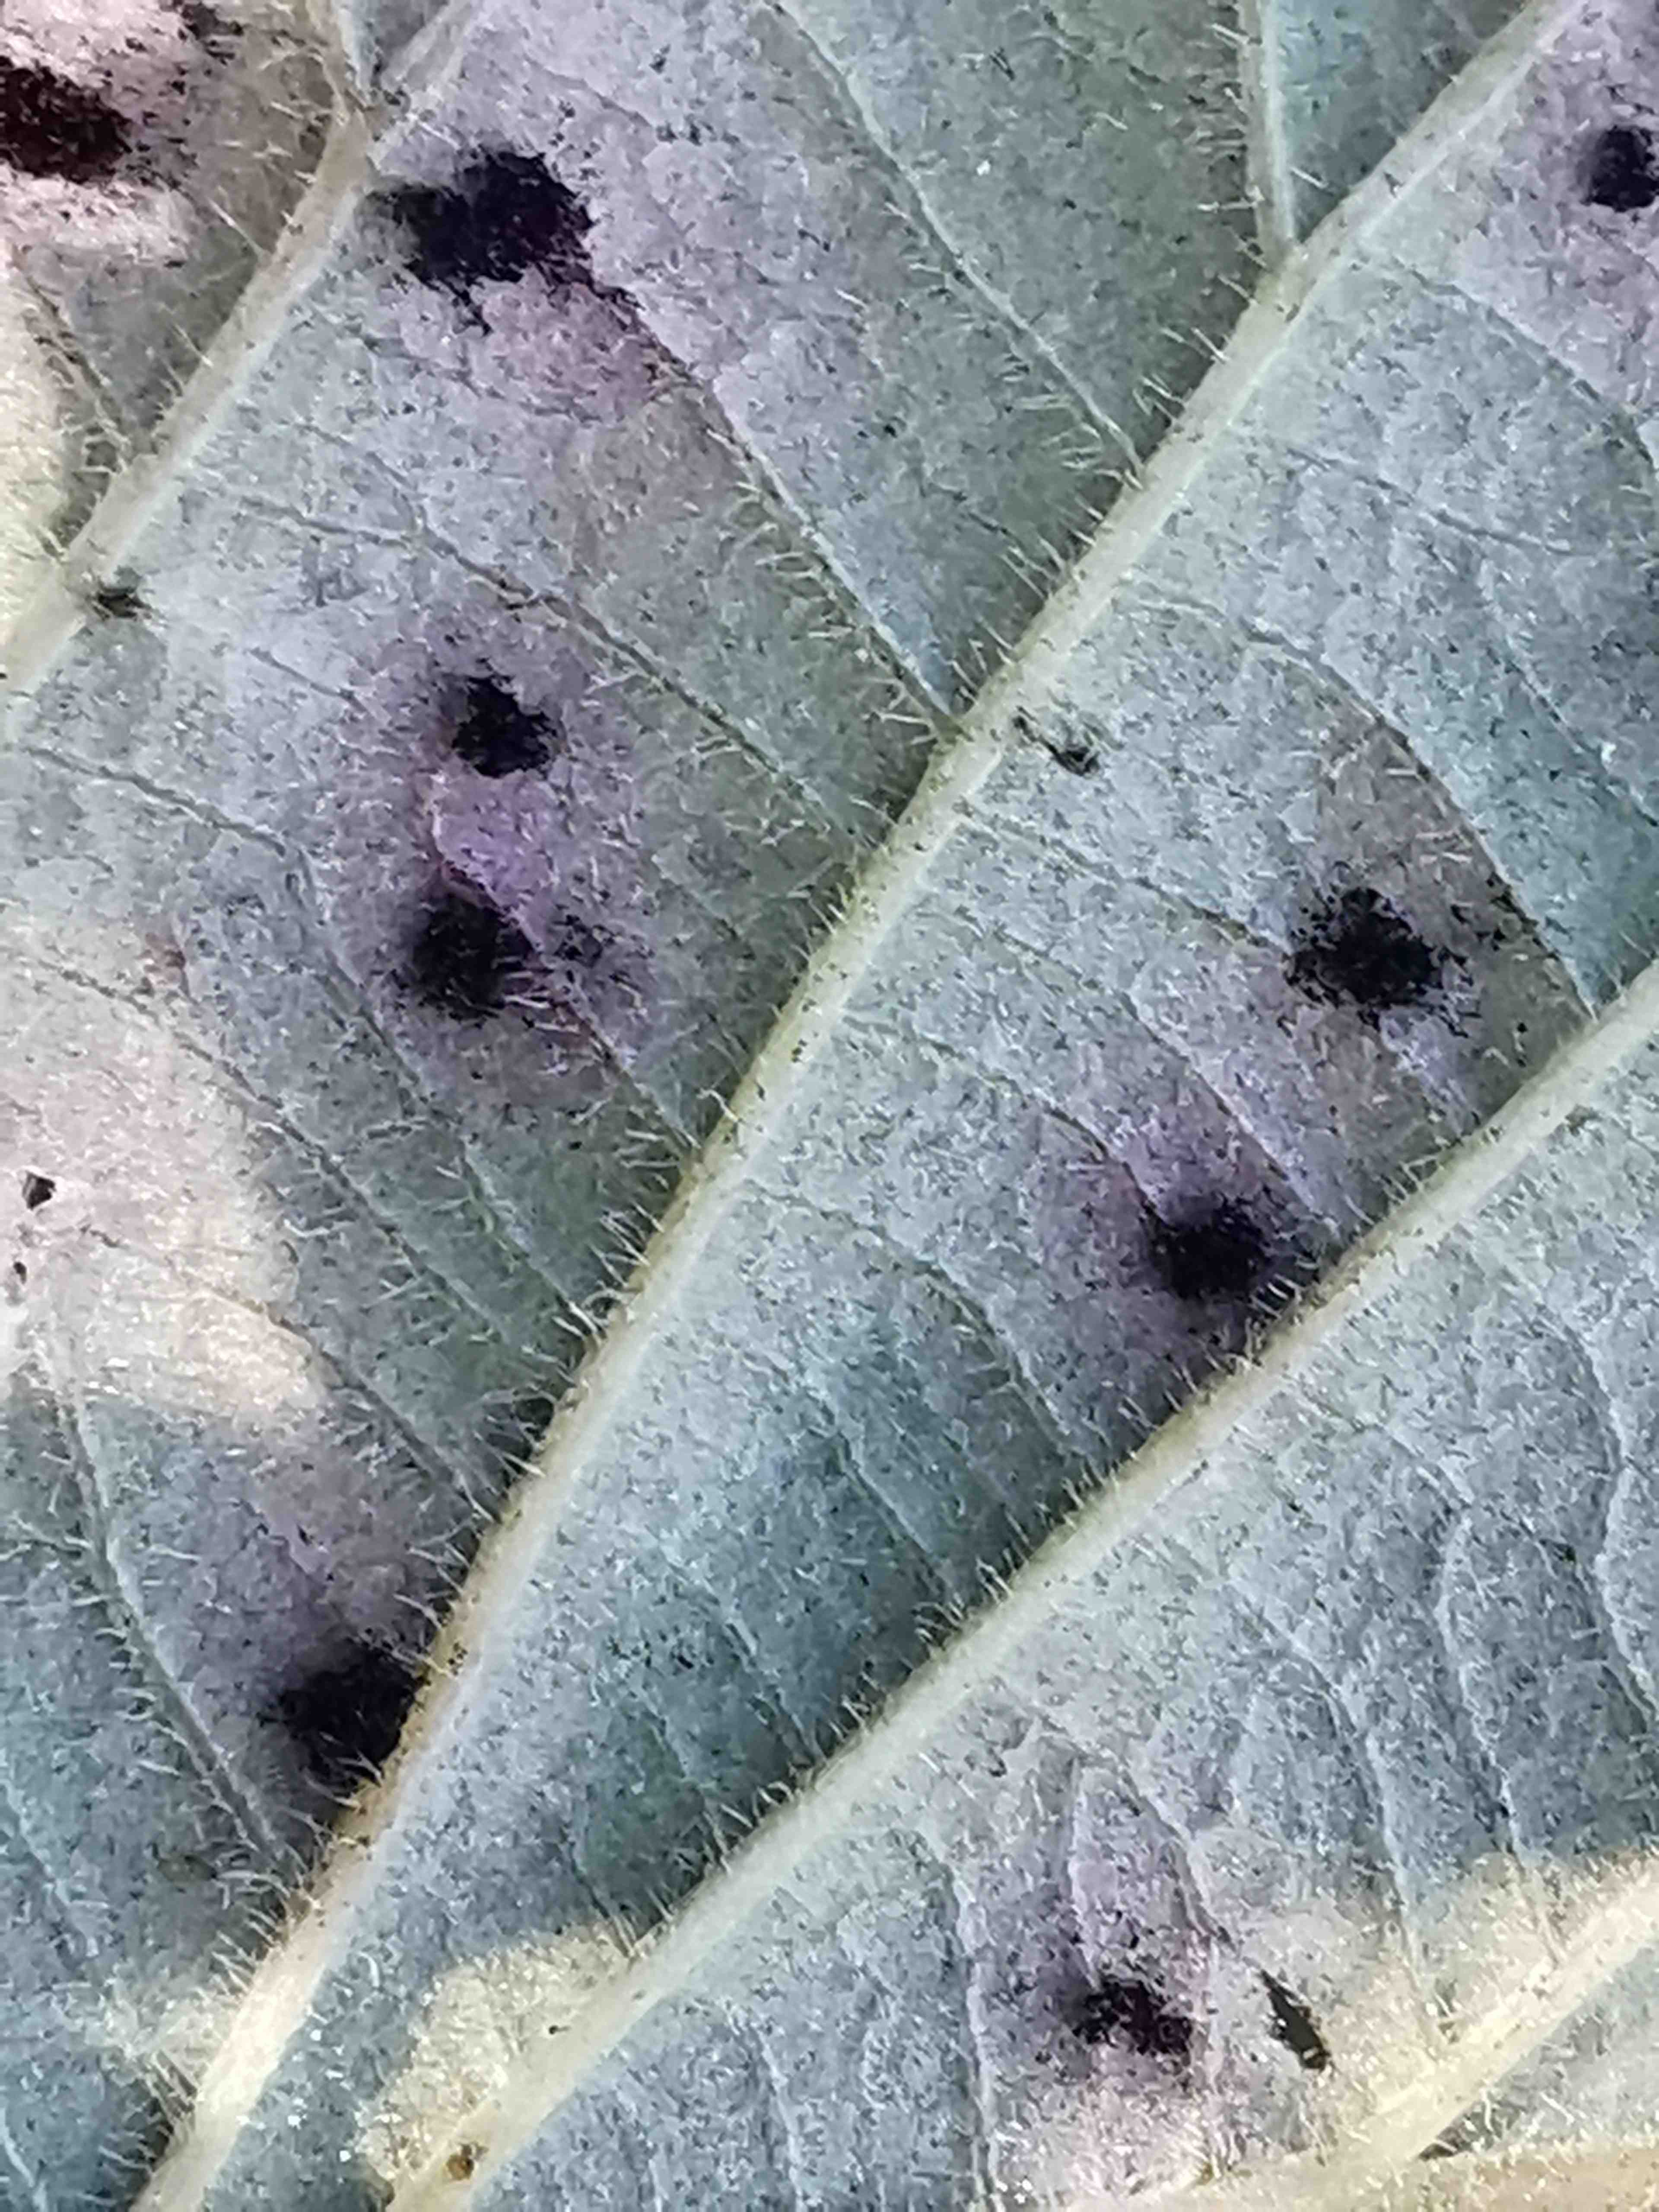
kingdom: Fungi
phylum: Basidiomycota
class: Pucciniomycetes
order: Pucciniales
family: Phragmidiaceae
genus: Phragmidium
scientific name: Phragmidium violaceum
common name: violet flercellerust
